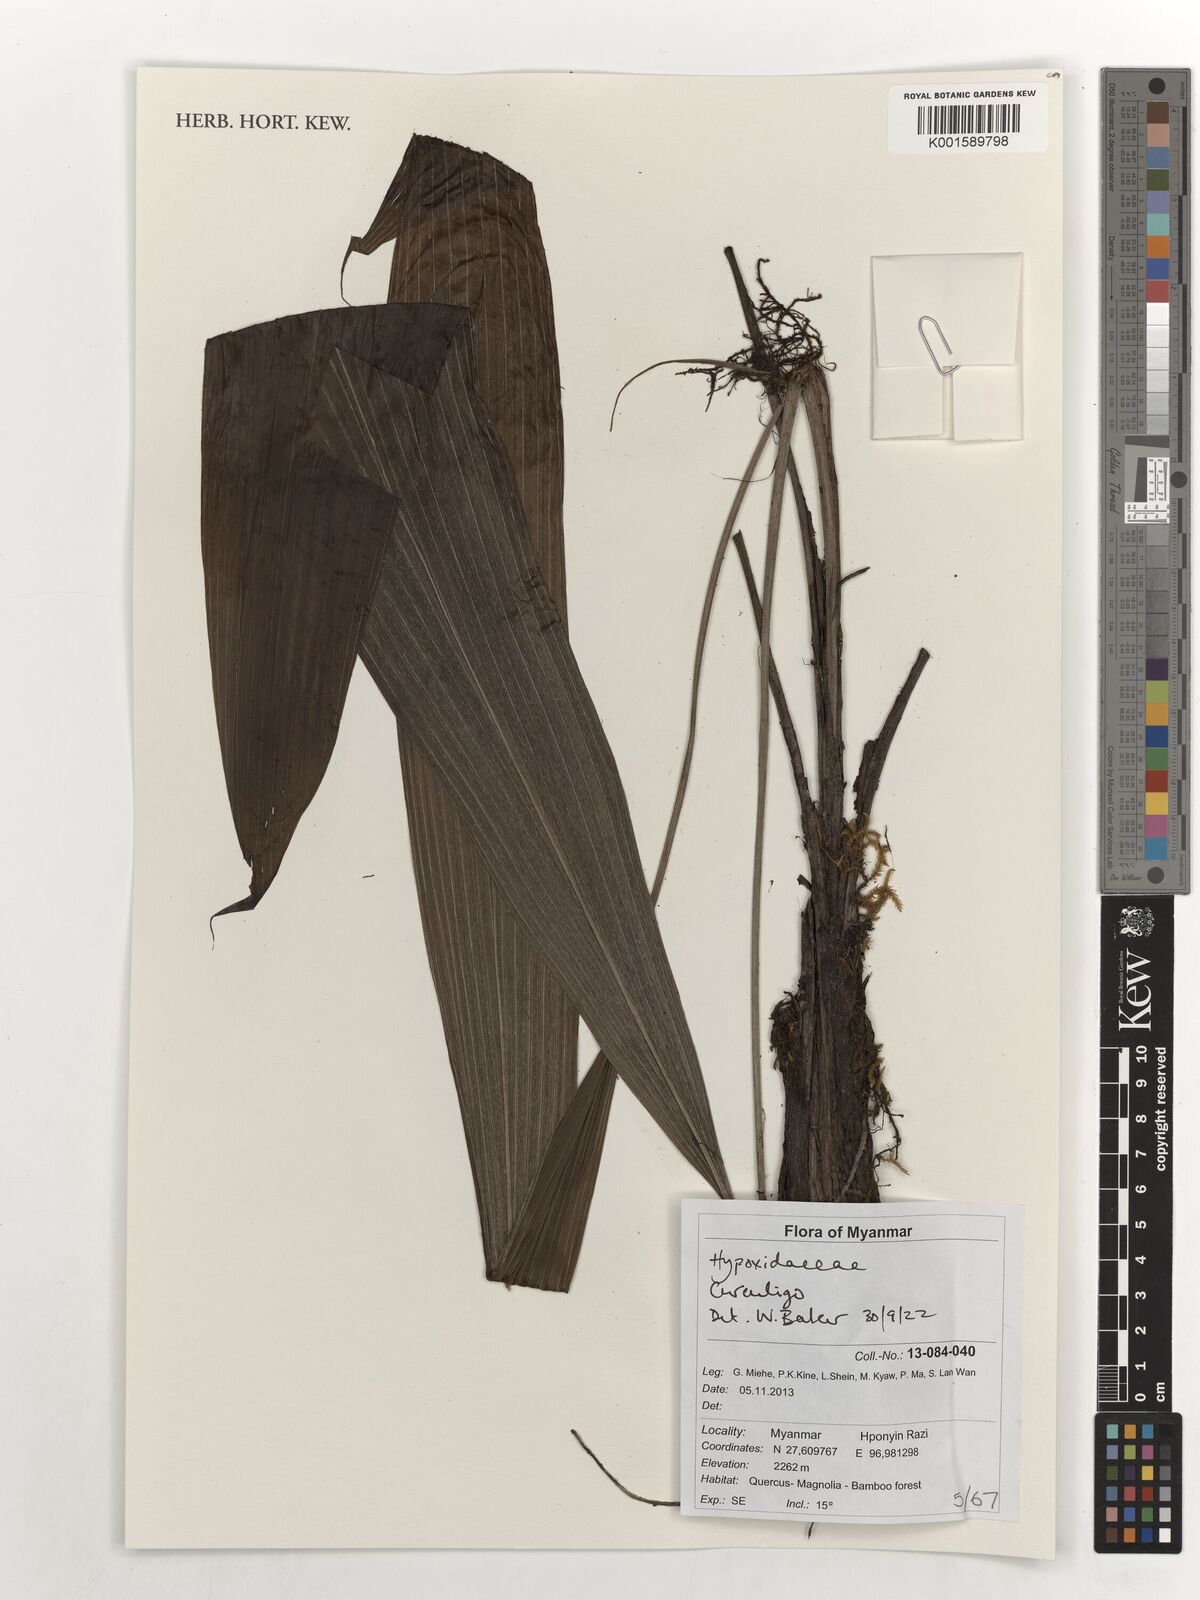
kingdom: Plantae
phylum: Tracheophyta
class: Liliopsida
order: Asparagales
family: Hypoxidaceae
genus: Curculigo
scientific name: Curculigo
